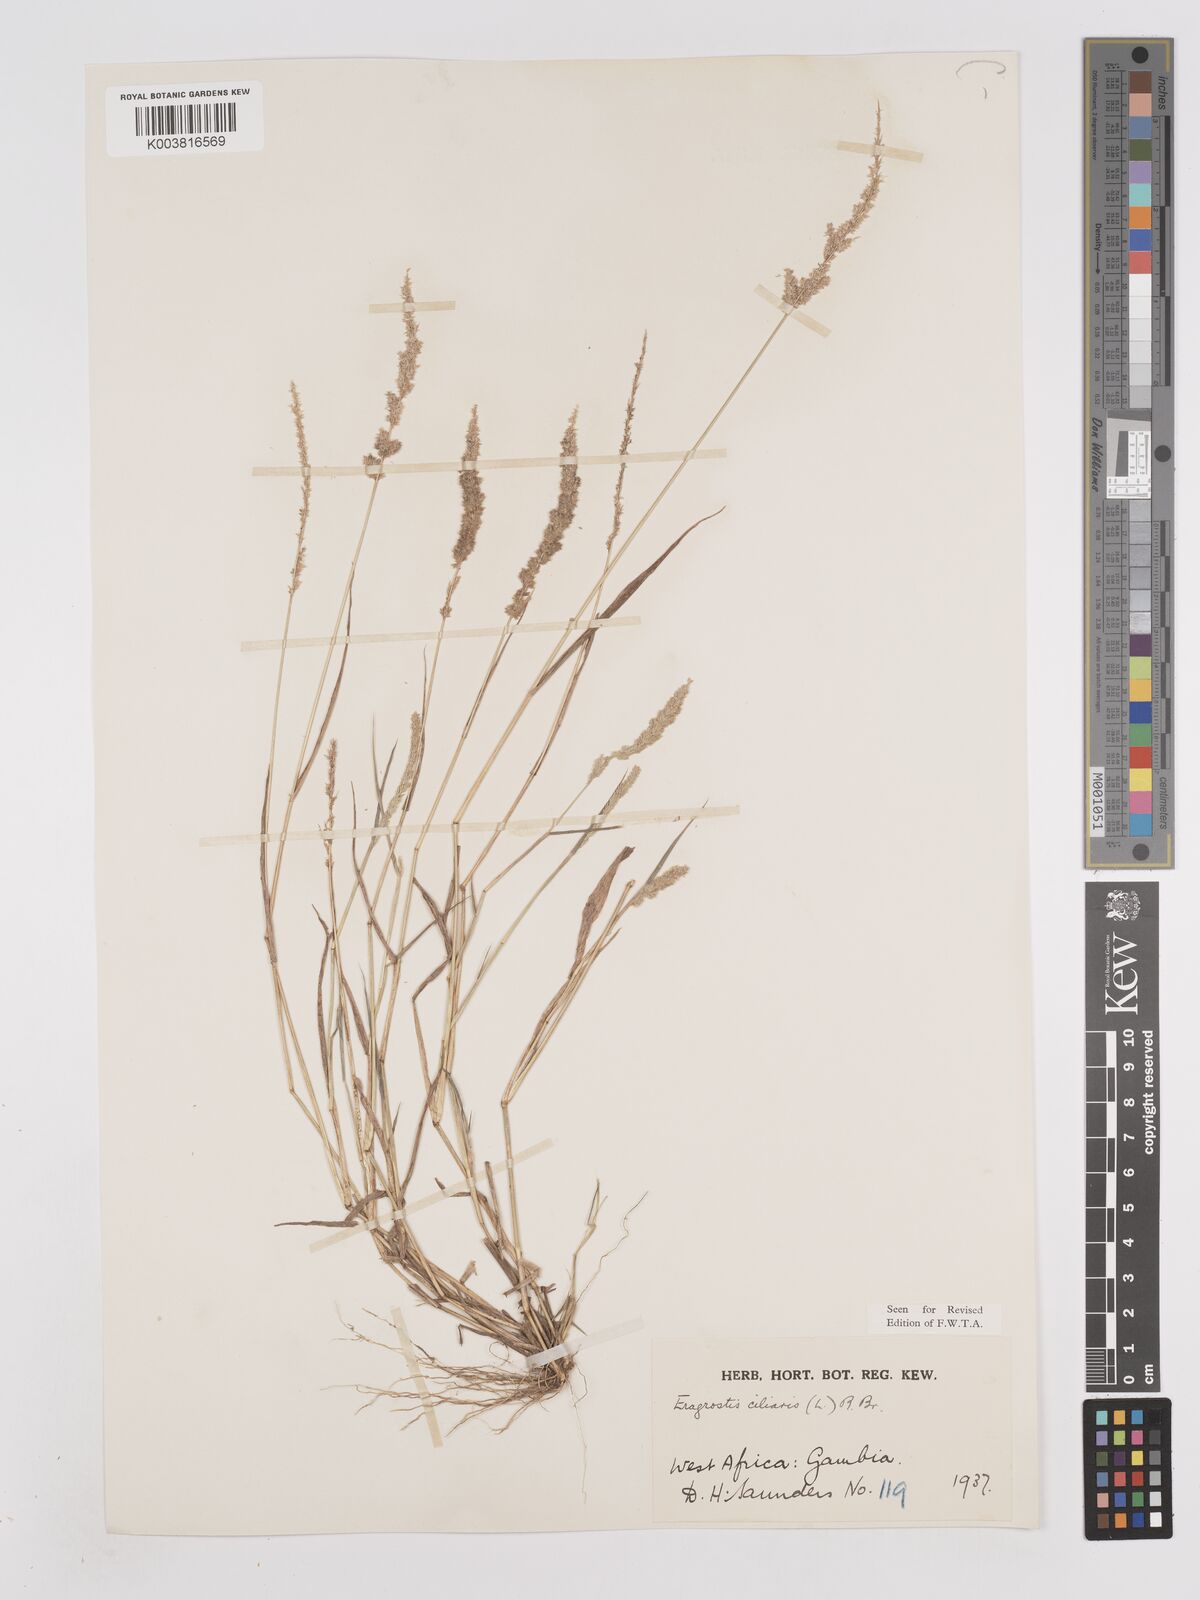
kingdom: Plantae
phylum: Tracheophyta
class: Liliopsida
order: Poales
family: Poaceae
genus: Eragrostis
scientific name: Eragrostis ciliaris
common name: Gophertail lovegrass
